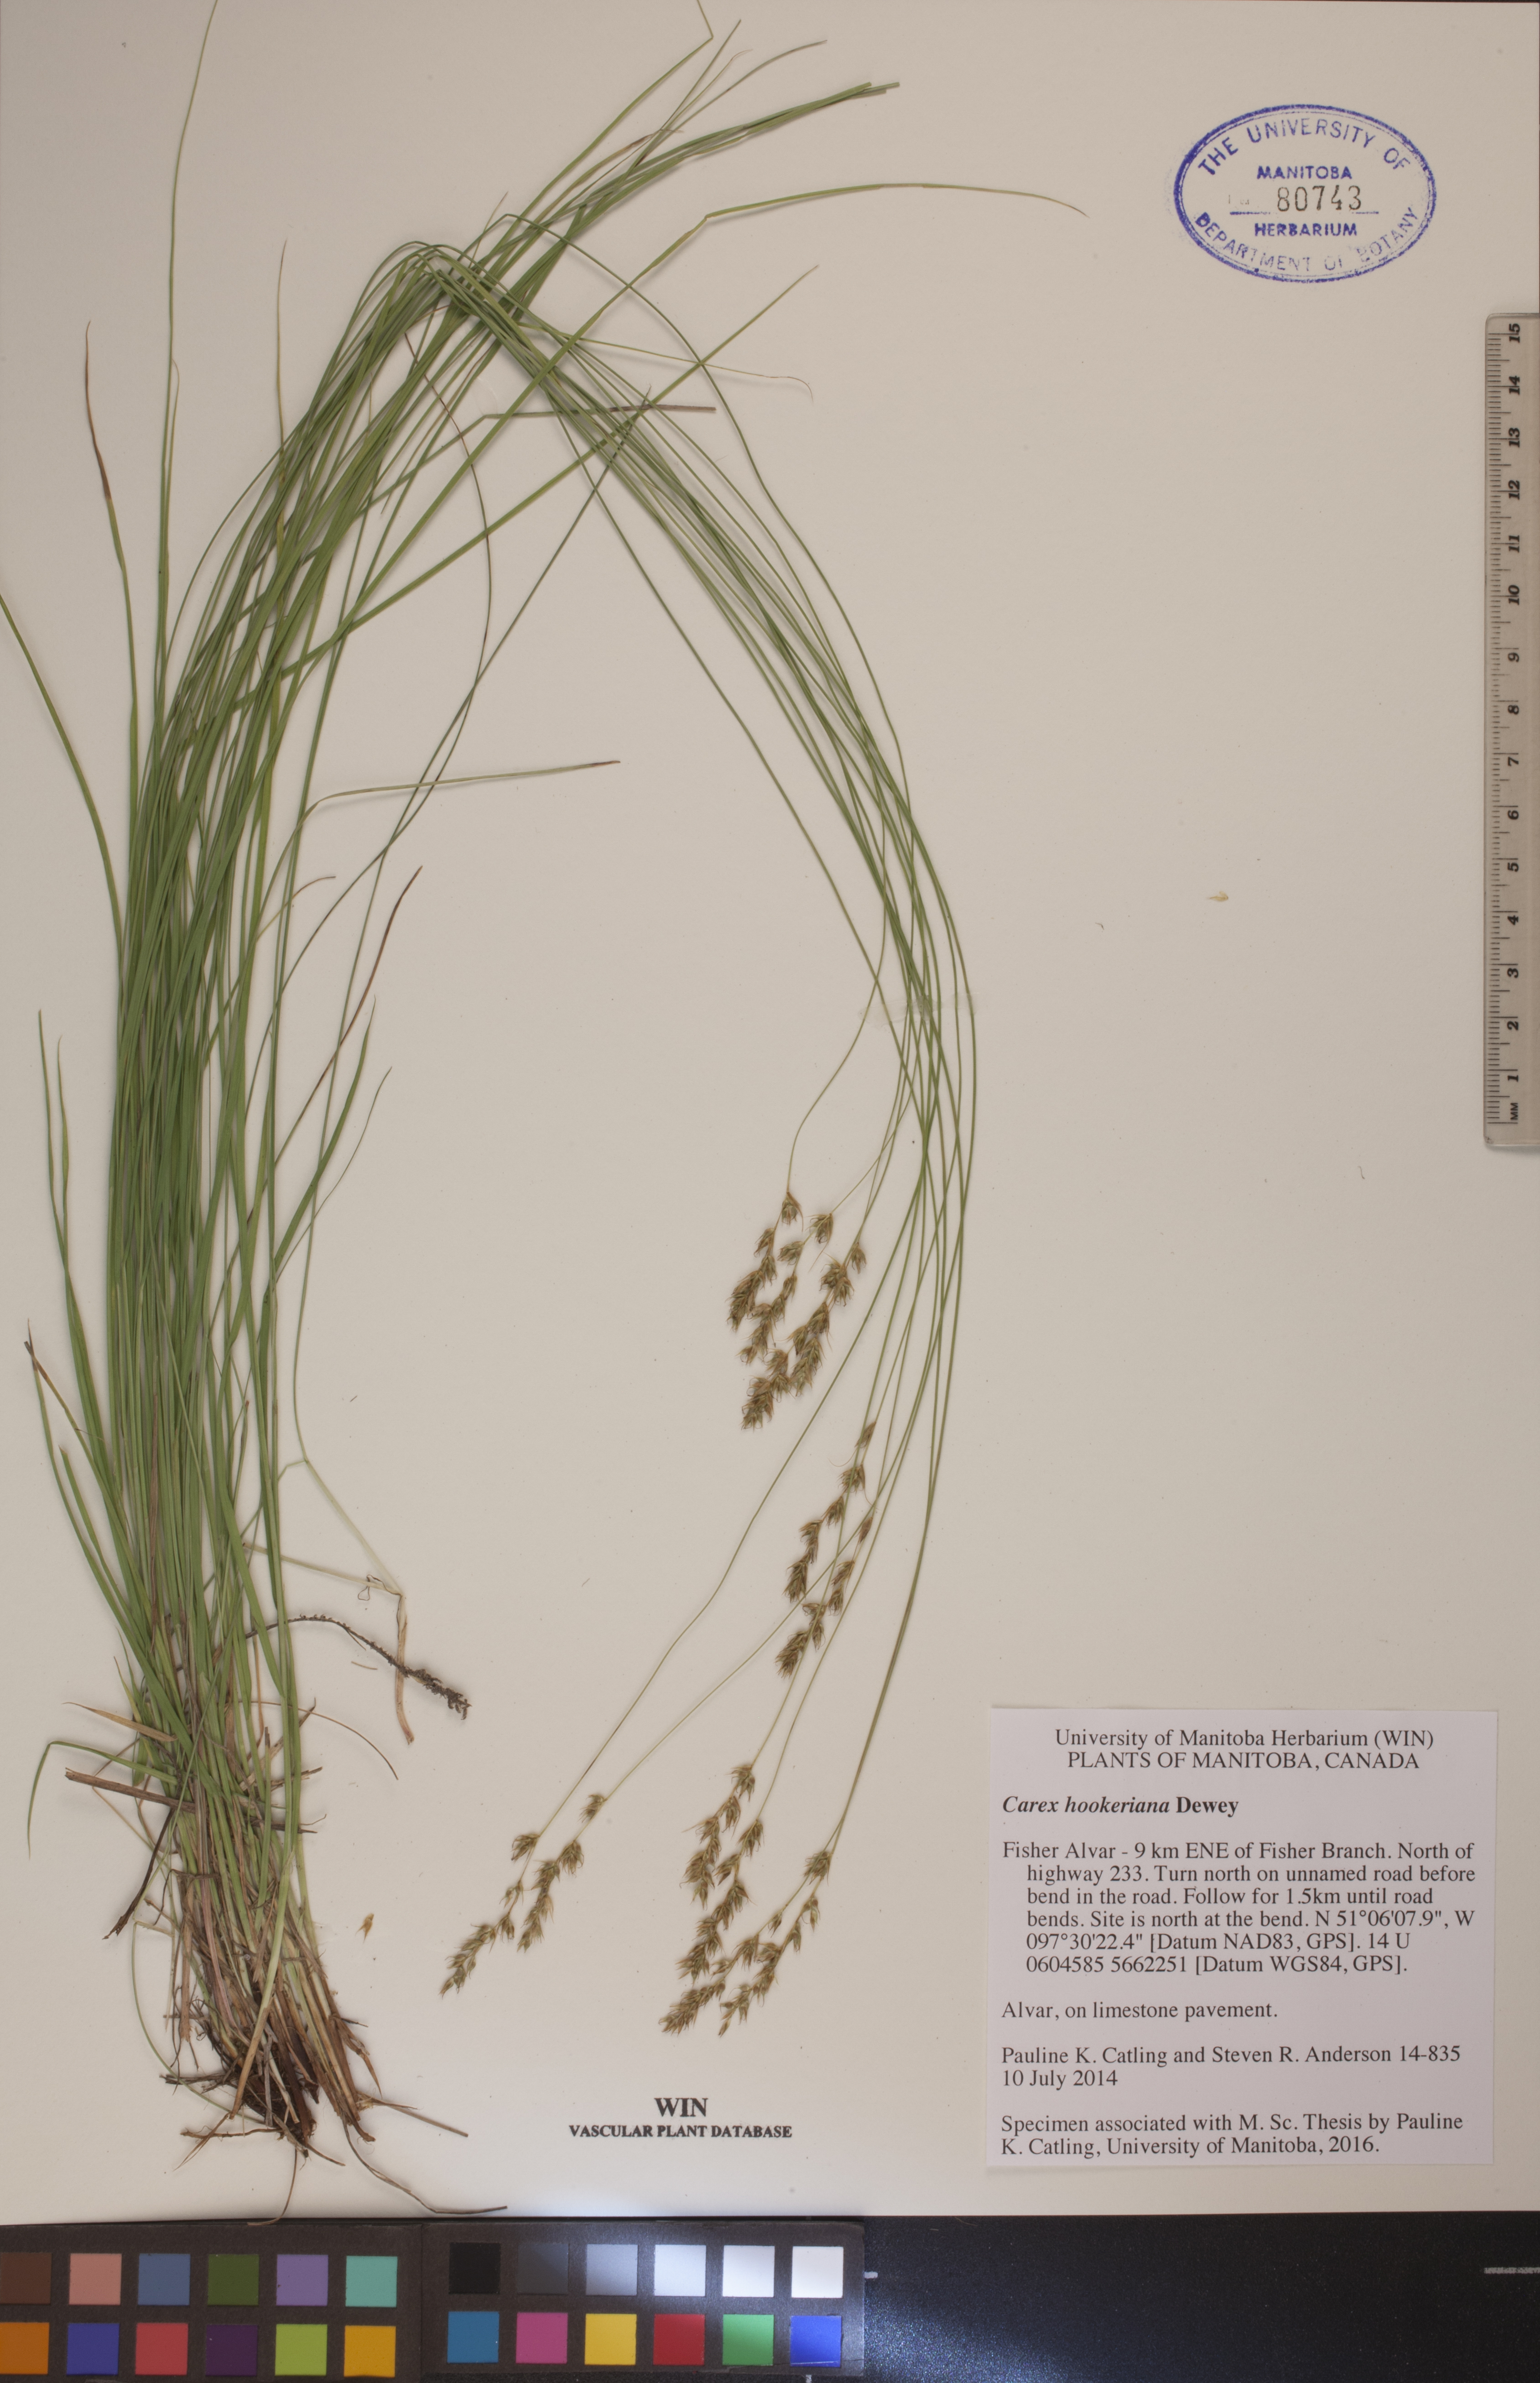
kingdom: Plantae
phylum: Tracheophyta
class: Liliopsida
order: Poales
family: Cyperaceae
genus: Carex
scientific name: Carex hookeriana
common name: Hooker's sedge
